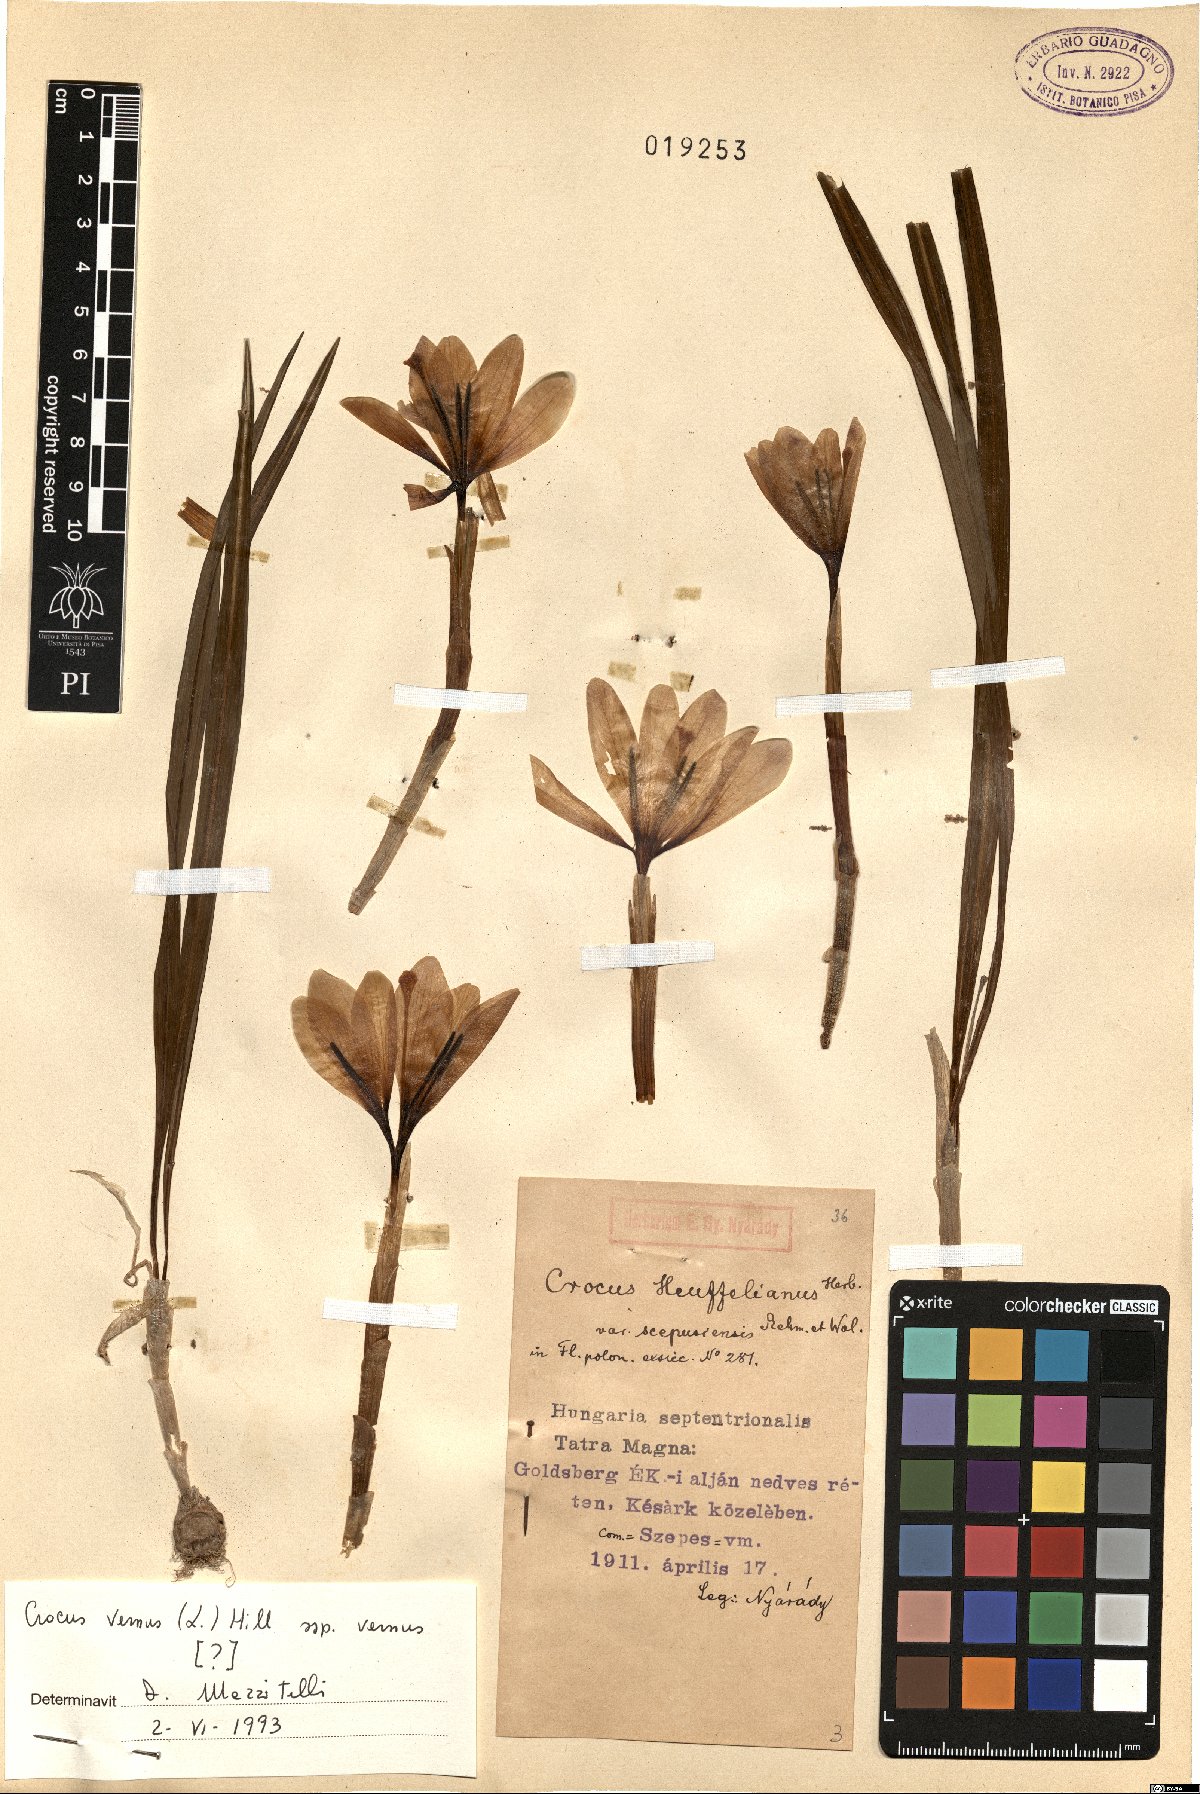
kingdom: Plantae
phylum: Tracheophyta
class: Liliopsida
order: Asparagales
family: Iridaceae
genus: Crocus
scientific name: Crocus vernus
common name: Spring crocus
